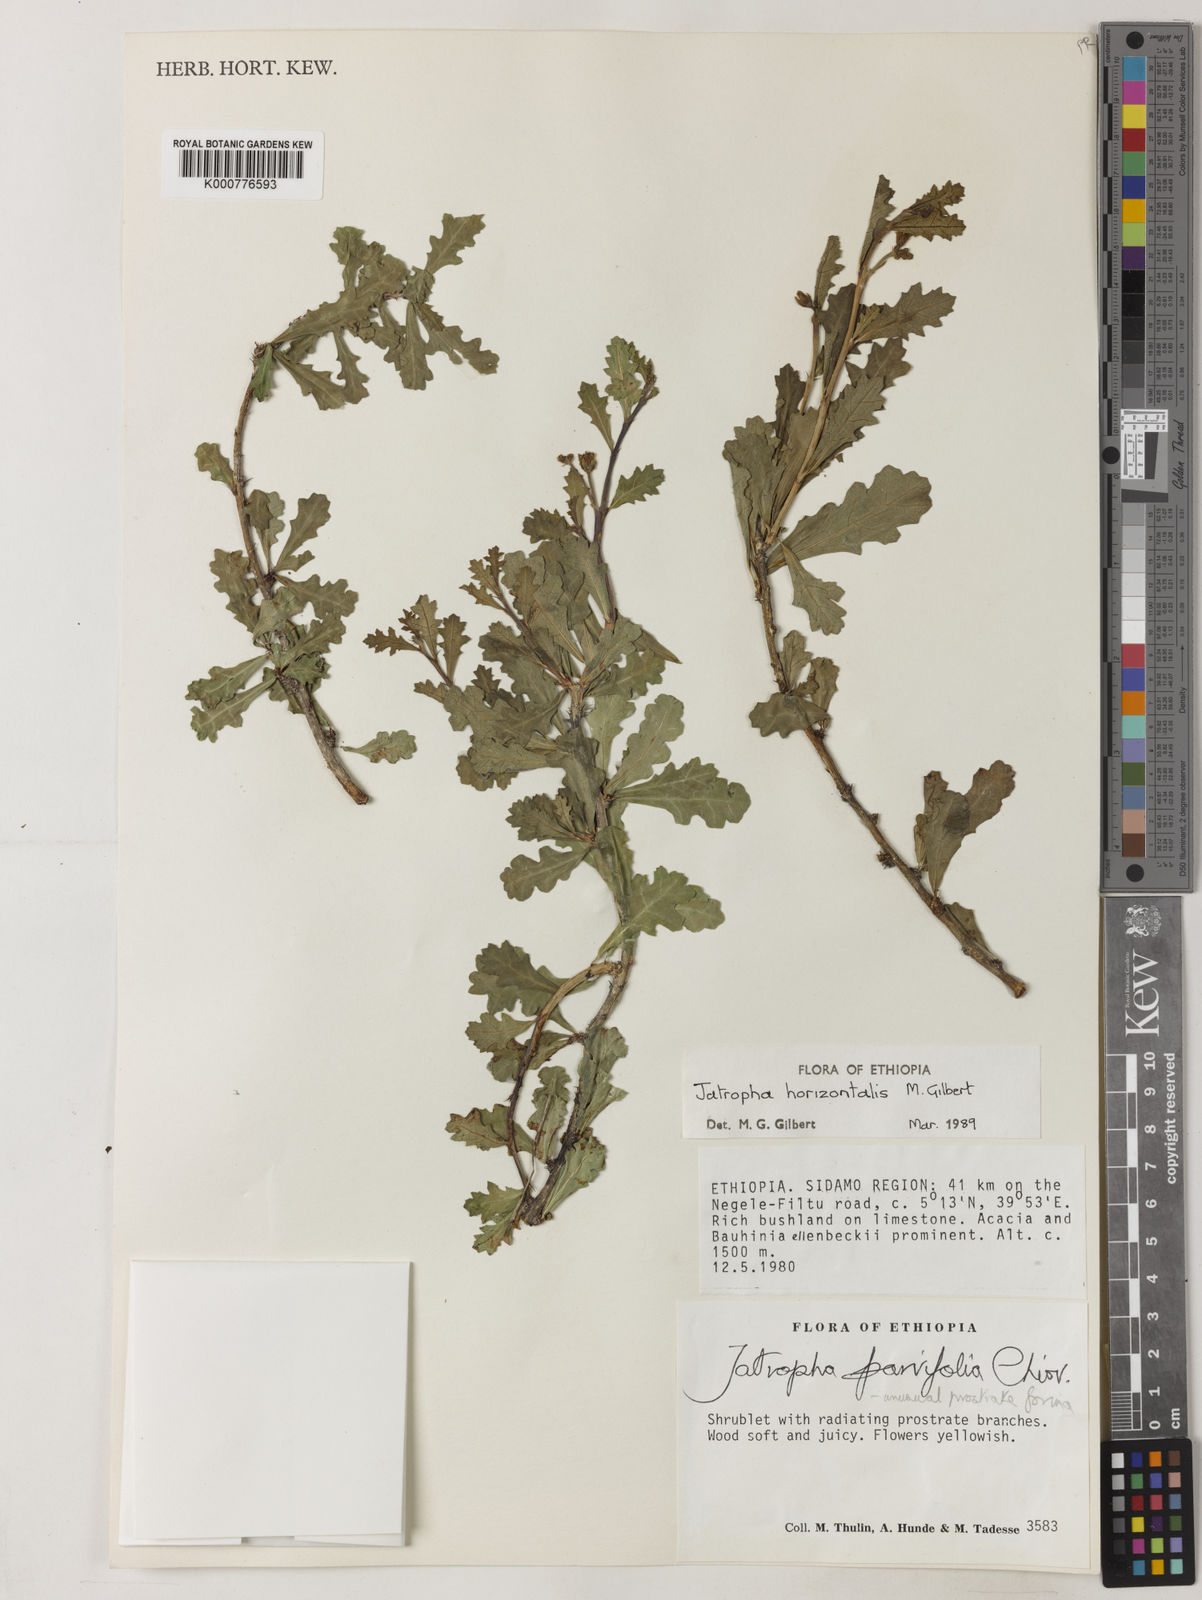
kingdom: Plantae
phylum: Tracheophyta
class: Magnoliopsida
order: Malpighiales
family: Euphorbiaceae
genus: Jatropha
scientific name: Jatropha horizontalis
